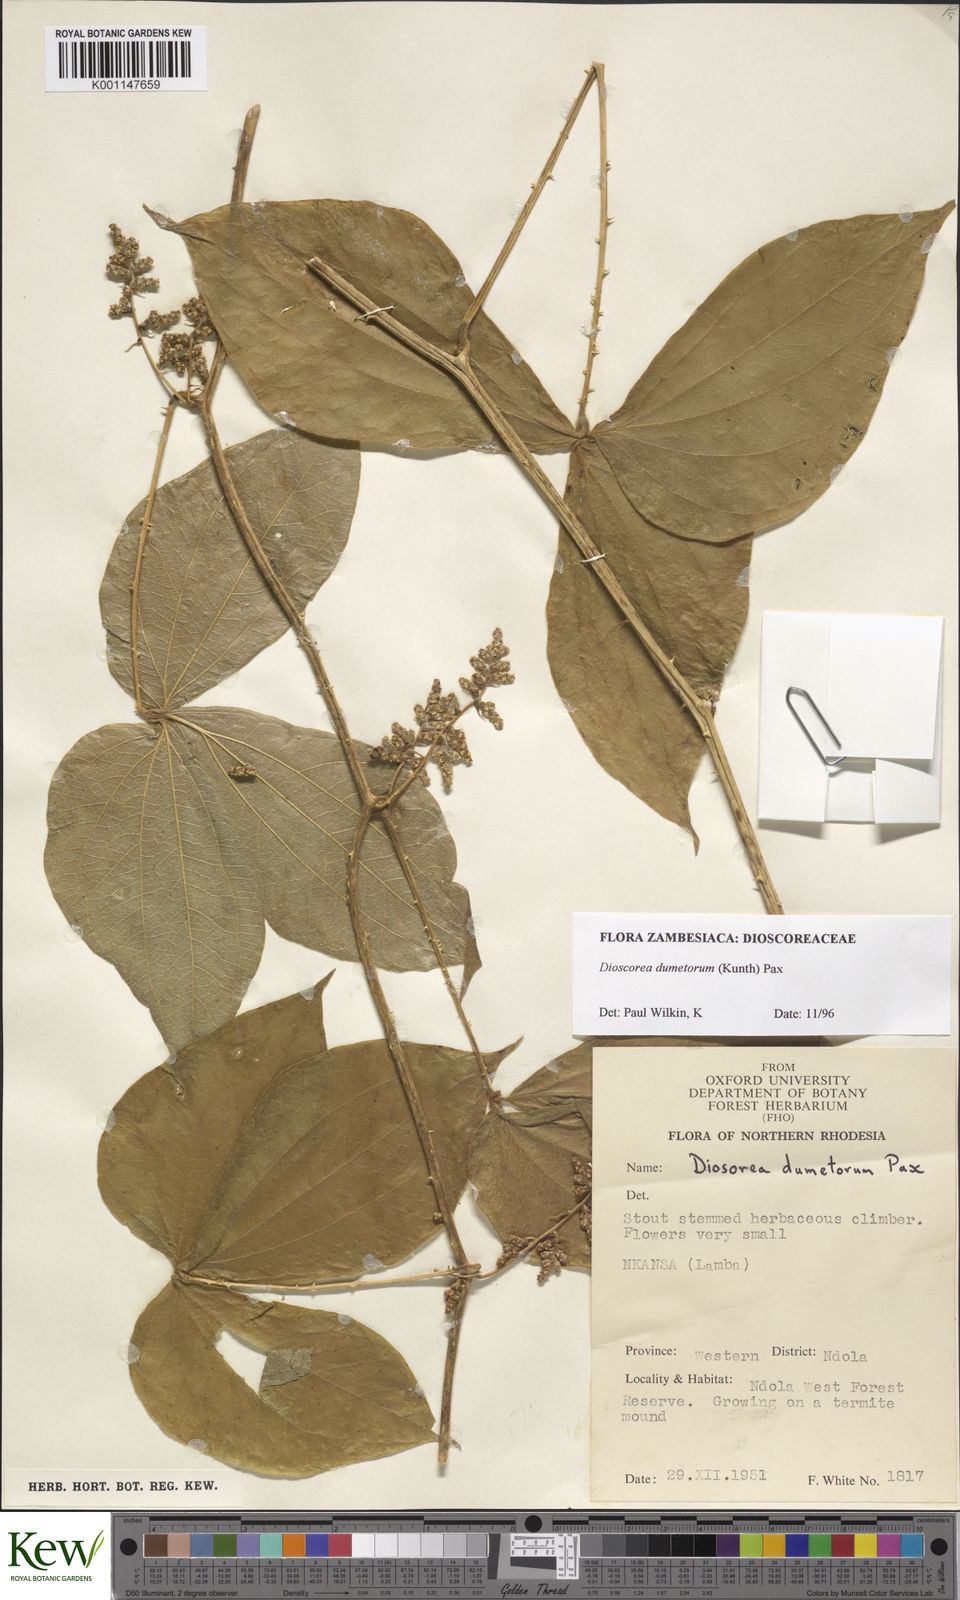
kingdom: Plantae
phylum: Tracheophyta
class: Liliopsida
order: Dioscoreales
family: Dioscoreaceae
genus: Dioscorea
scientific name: Dioscorea dumetorum
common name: African bitter yam
